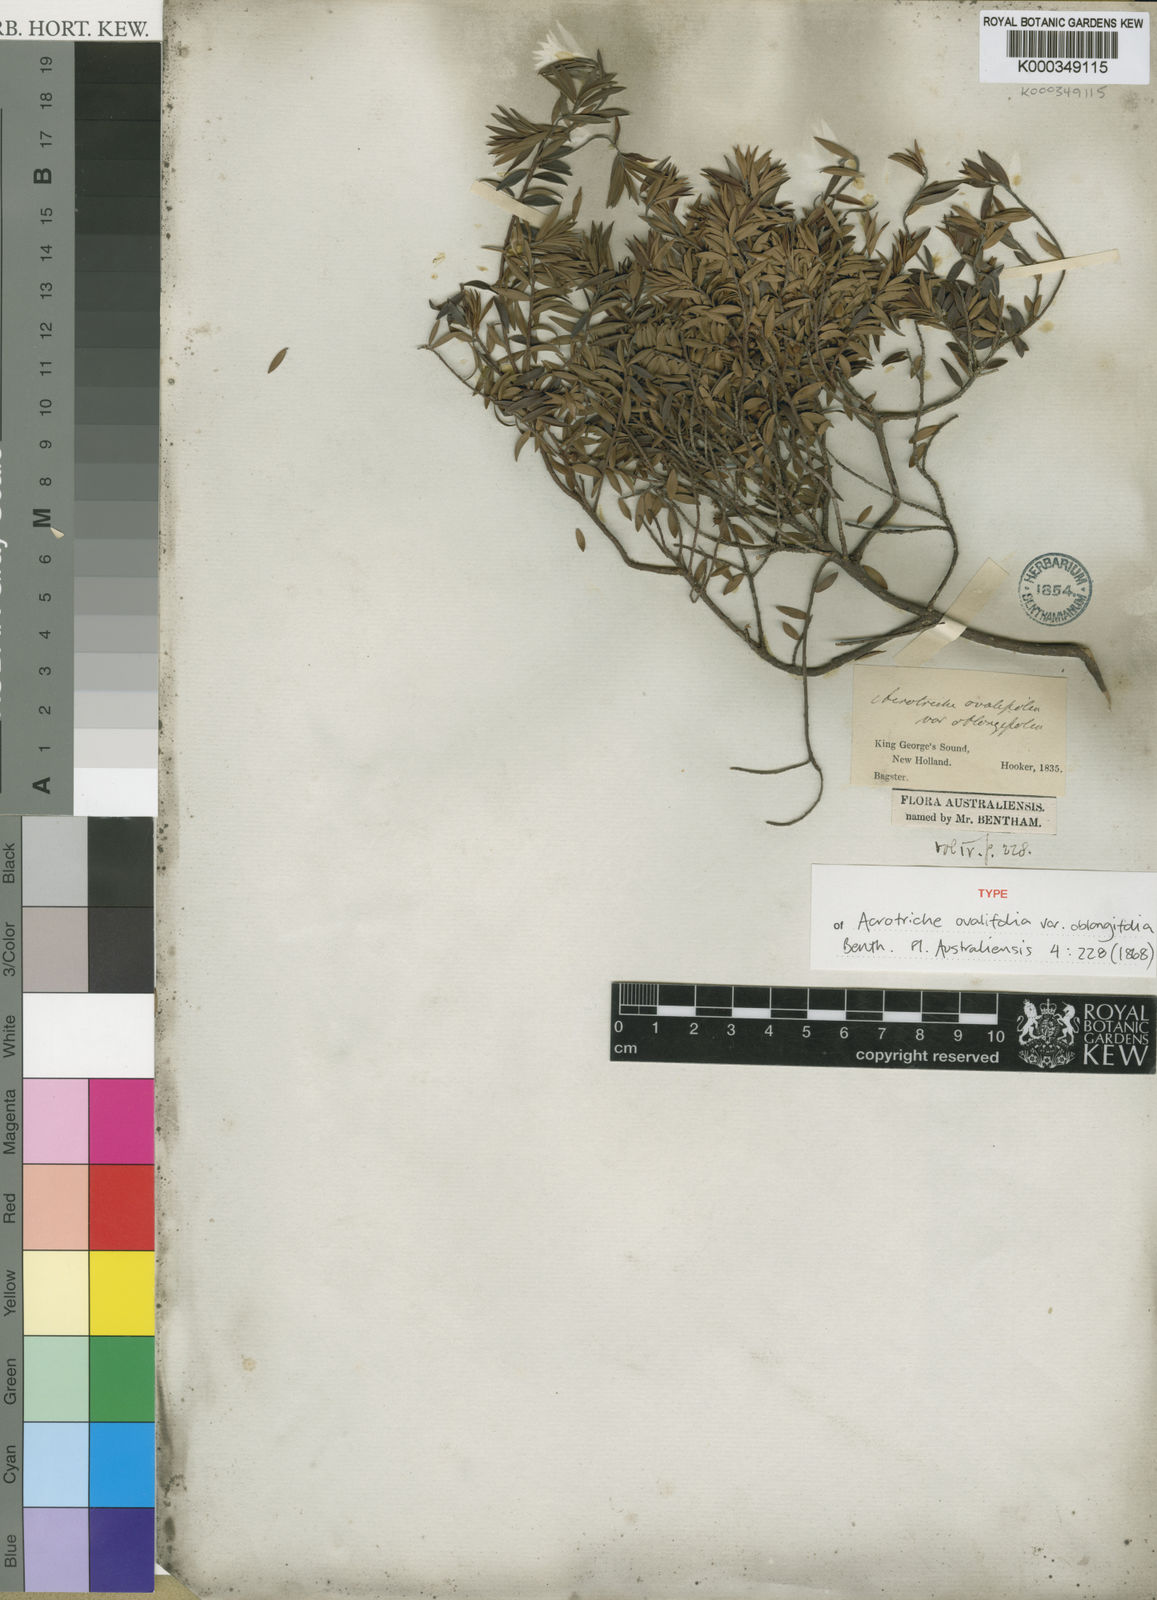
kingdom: Plantae
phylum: Tracheophyta
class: Magnoliopsida
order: Ericales
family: Ericaceae
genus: Acrotriche
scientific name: Acrotriche cordata
